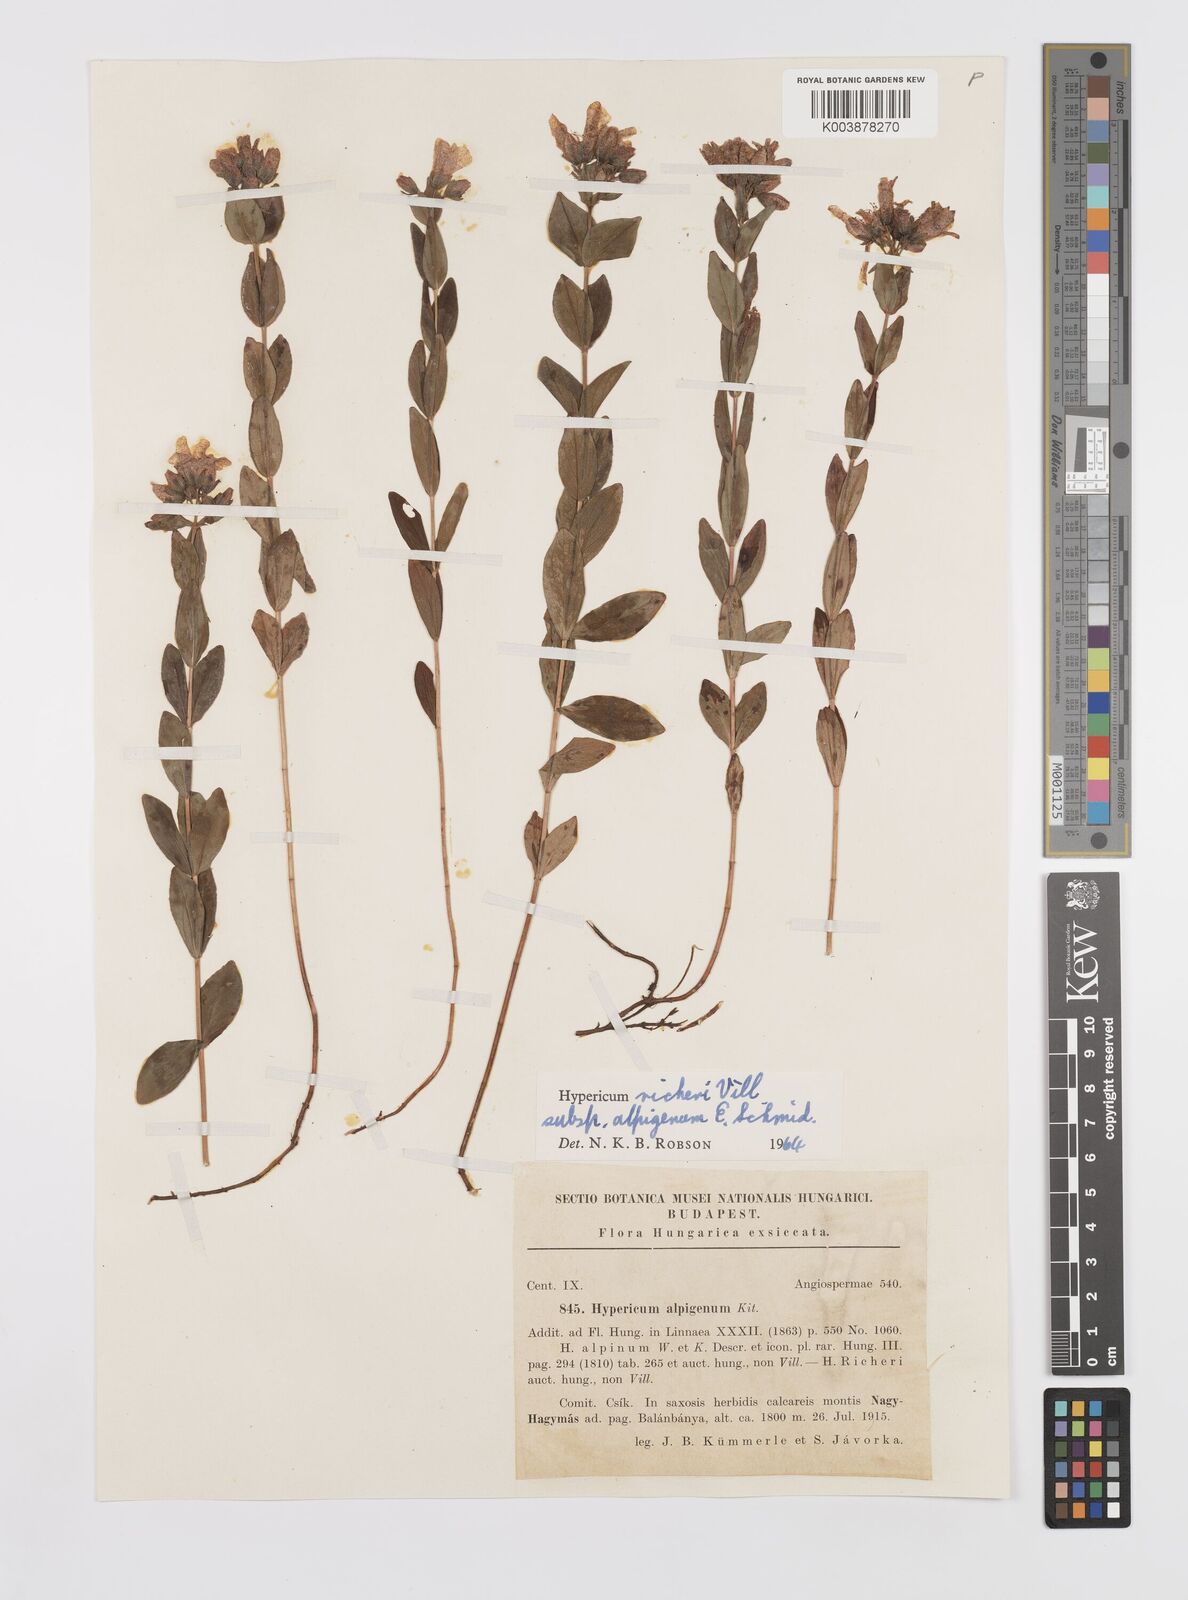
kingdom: Plantae
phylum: Tracheophyta
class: Magnoliopsida
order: Malpighiales
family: Hypericaceae
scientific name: Hypericaceae
